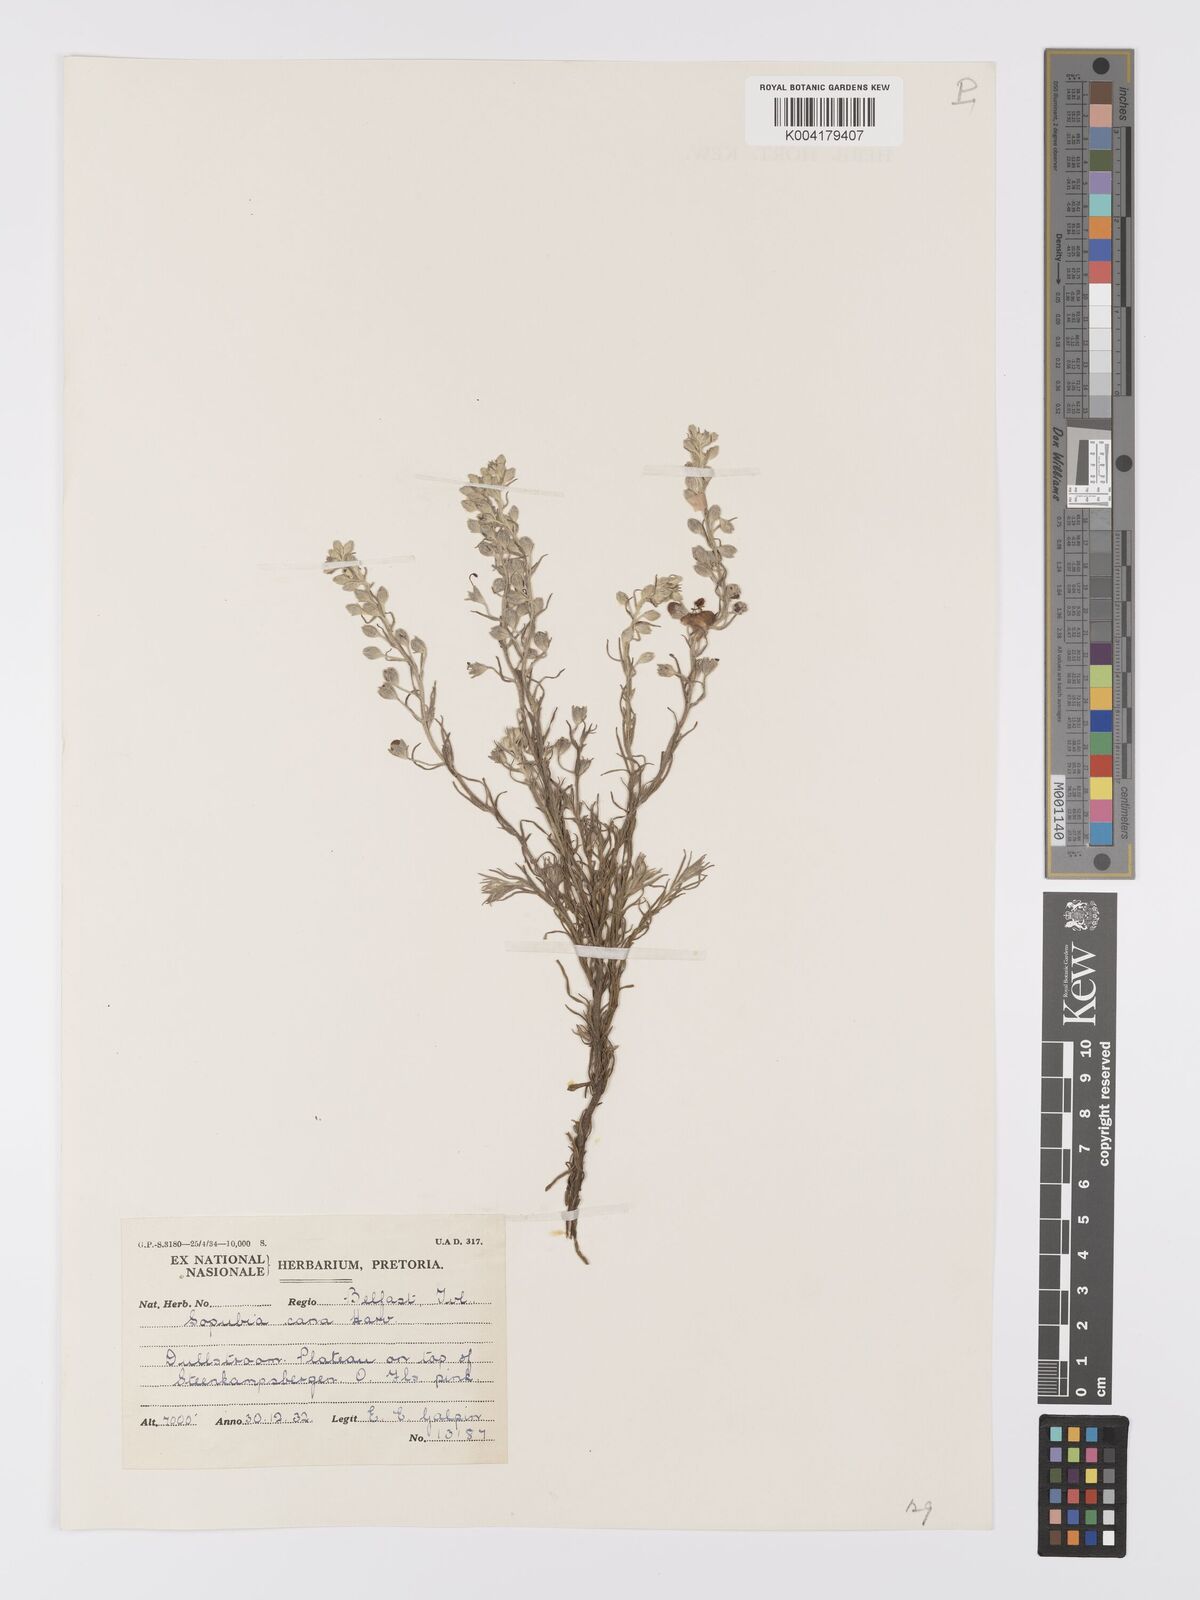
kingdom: Plantae
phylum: Tracheophyta
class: Magnoliopsida
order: Lamiales
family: Orobanchaceae
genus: Sopubia
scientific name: Sopubia cana
